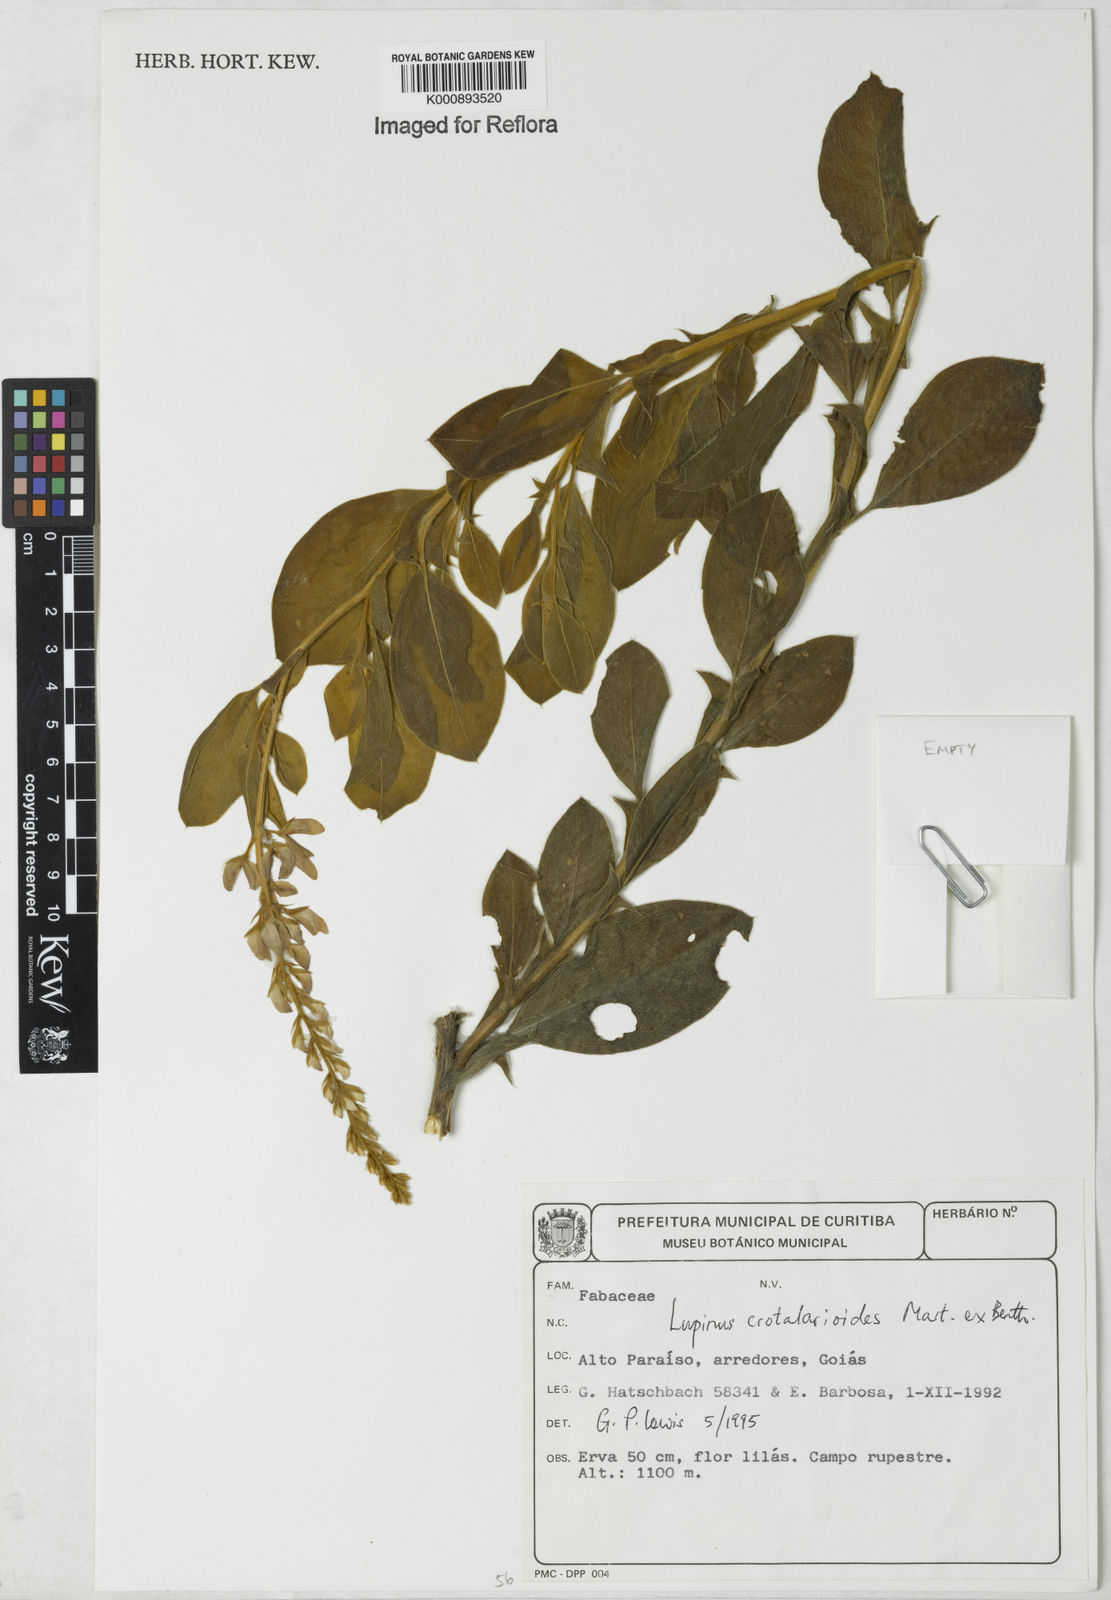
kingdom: Plantae
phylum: Tracheophyta
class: Magnoliopsida
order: Fabales
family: Fabaceae
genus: Lupinus
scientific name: Lupinus crotalarioides
